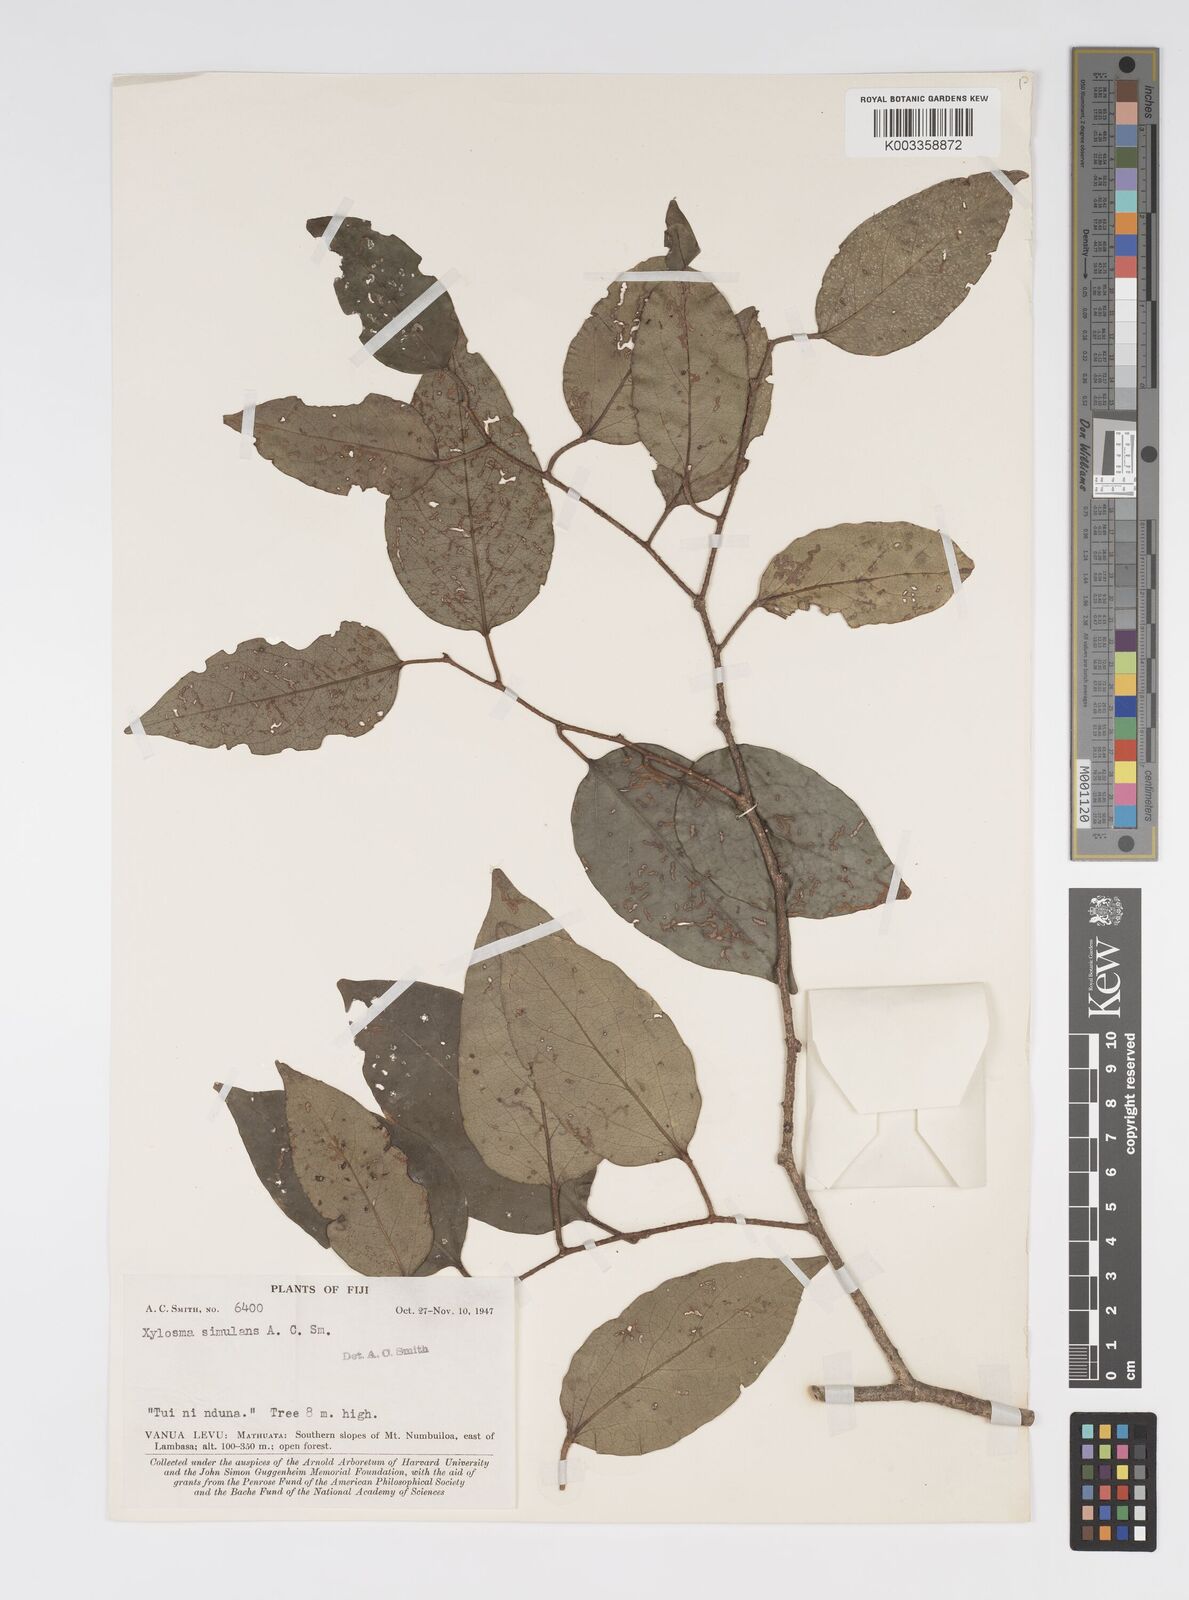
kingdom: Plantae
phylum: Tracheophyta
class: Magnoliopsida
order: Malpighiales
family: Salicaceae
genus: Xylosma
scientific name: Xylosma simulans
